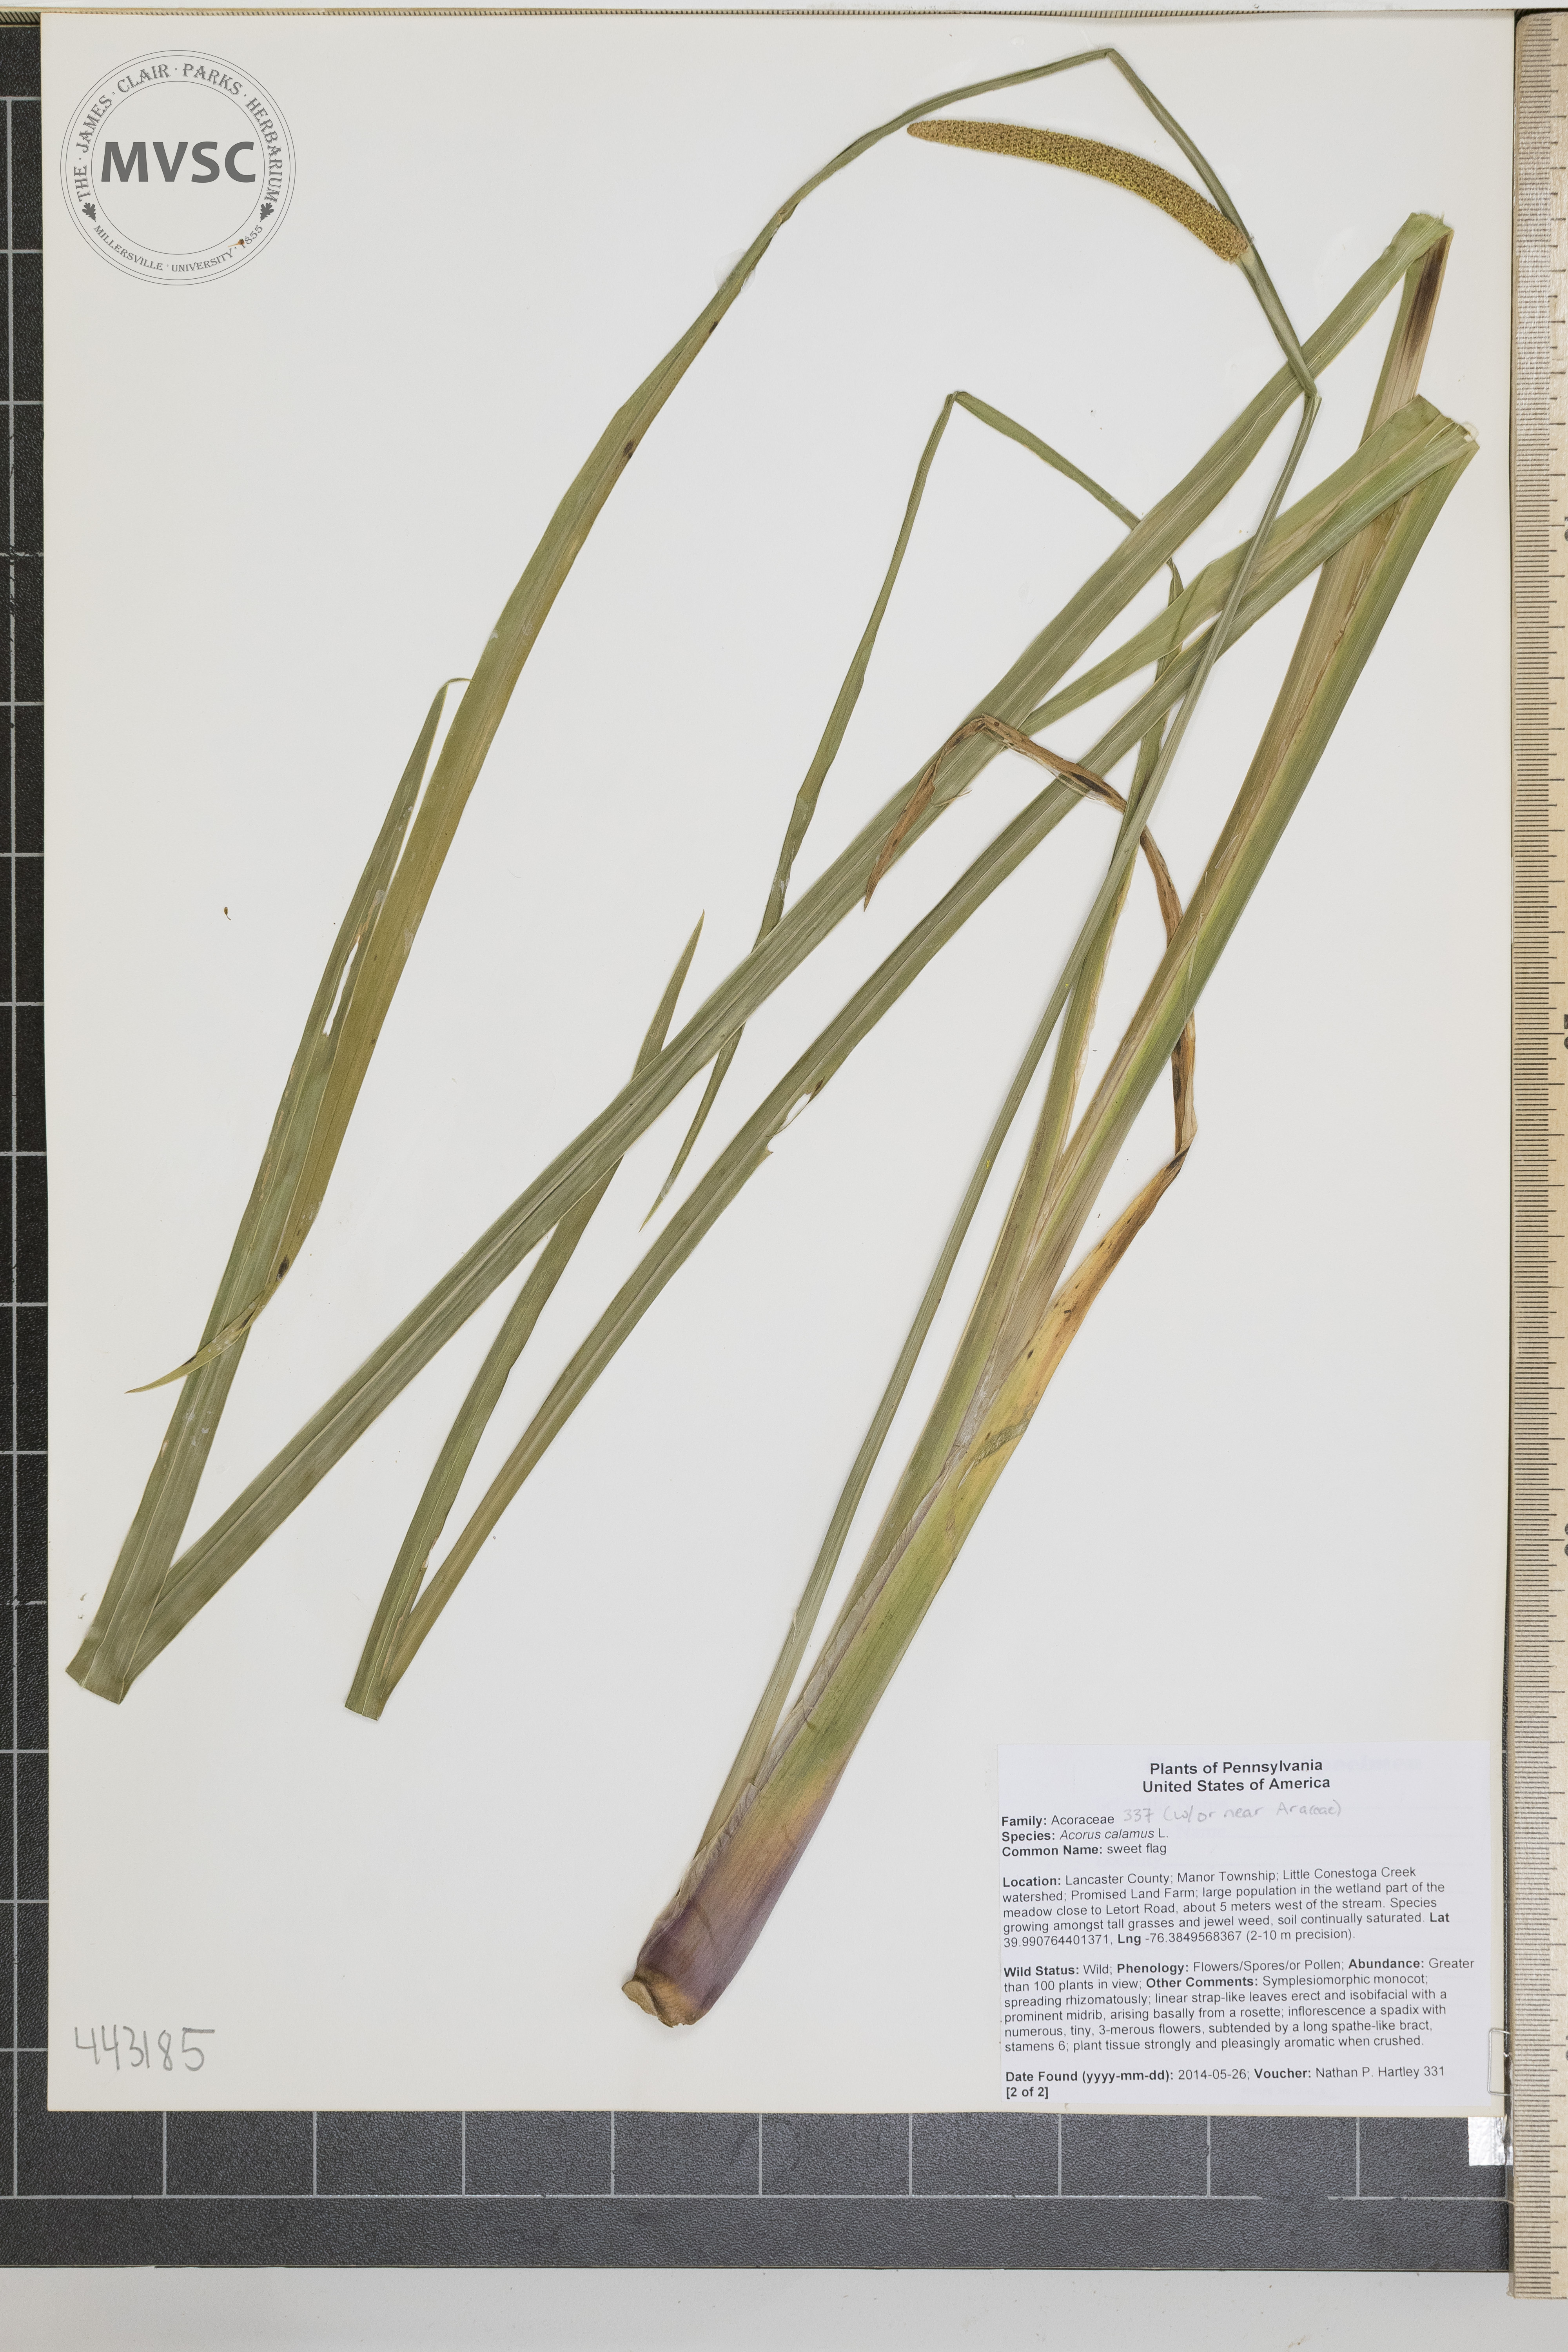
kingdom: Plantae
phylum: Tracheophyta
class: Liliopsida
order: Acorales
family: Acoraceae
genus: Acorus
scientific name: Acorus calamus
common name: Sweet flag
